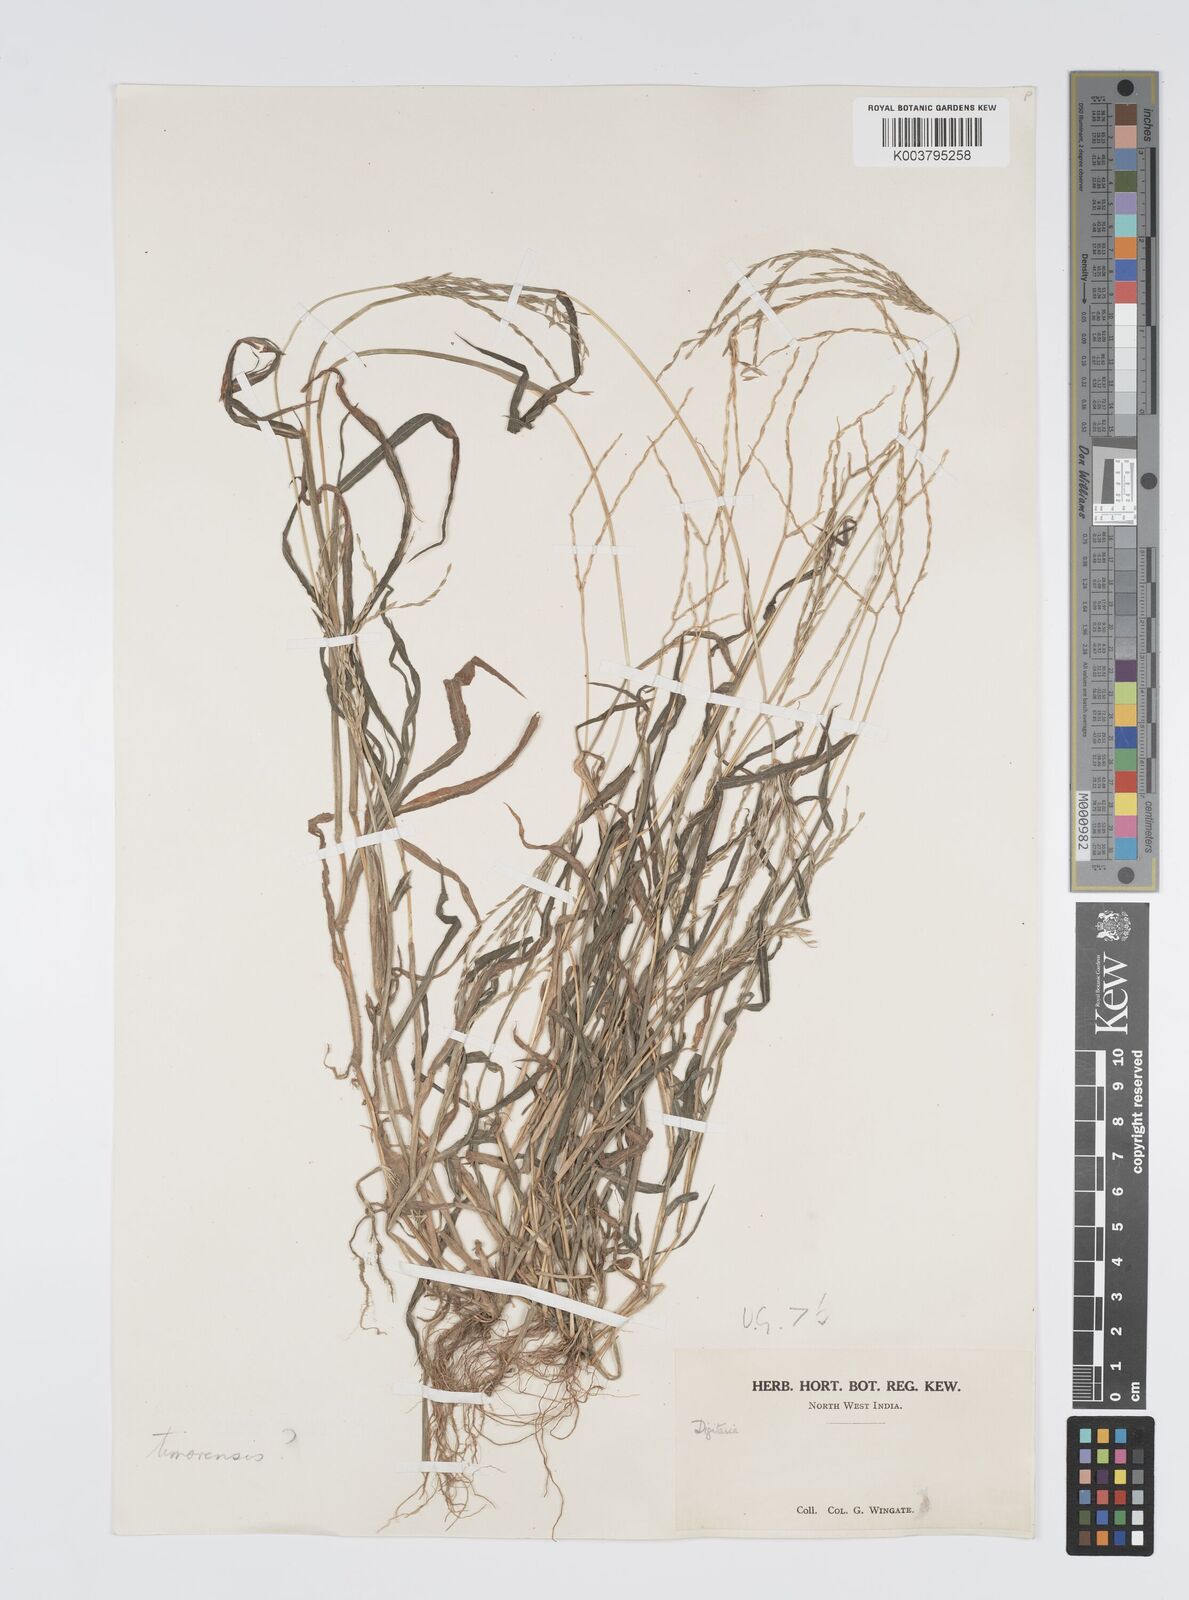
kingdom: Plantae
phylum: Tracheophyta
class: Liliopsida
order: Poales
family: Poaceae
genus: Digitaria
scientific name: Digitaria ciliaris
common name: Tropical finger-grass
